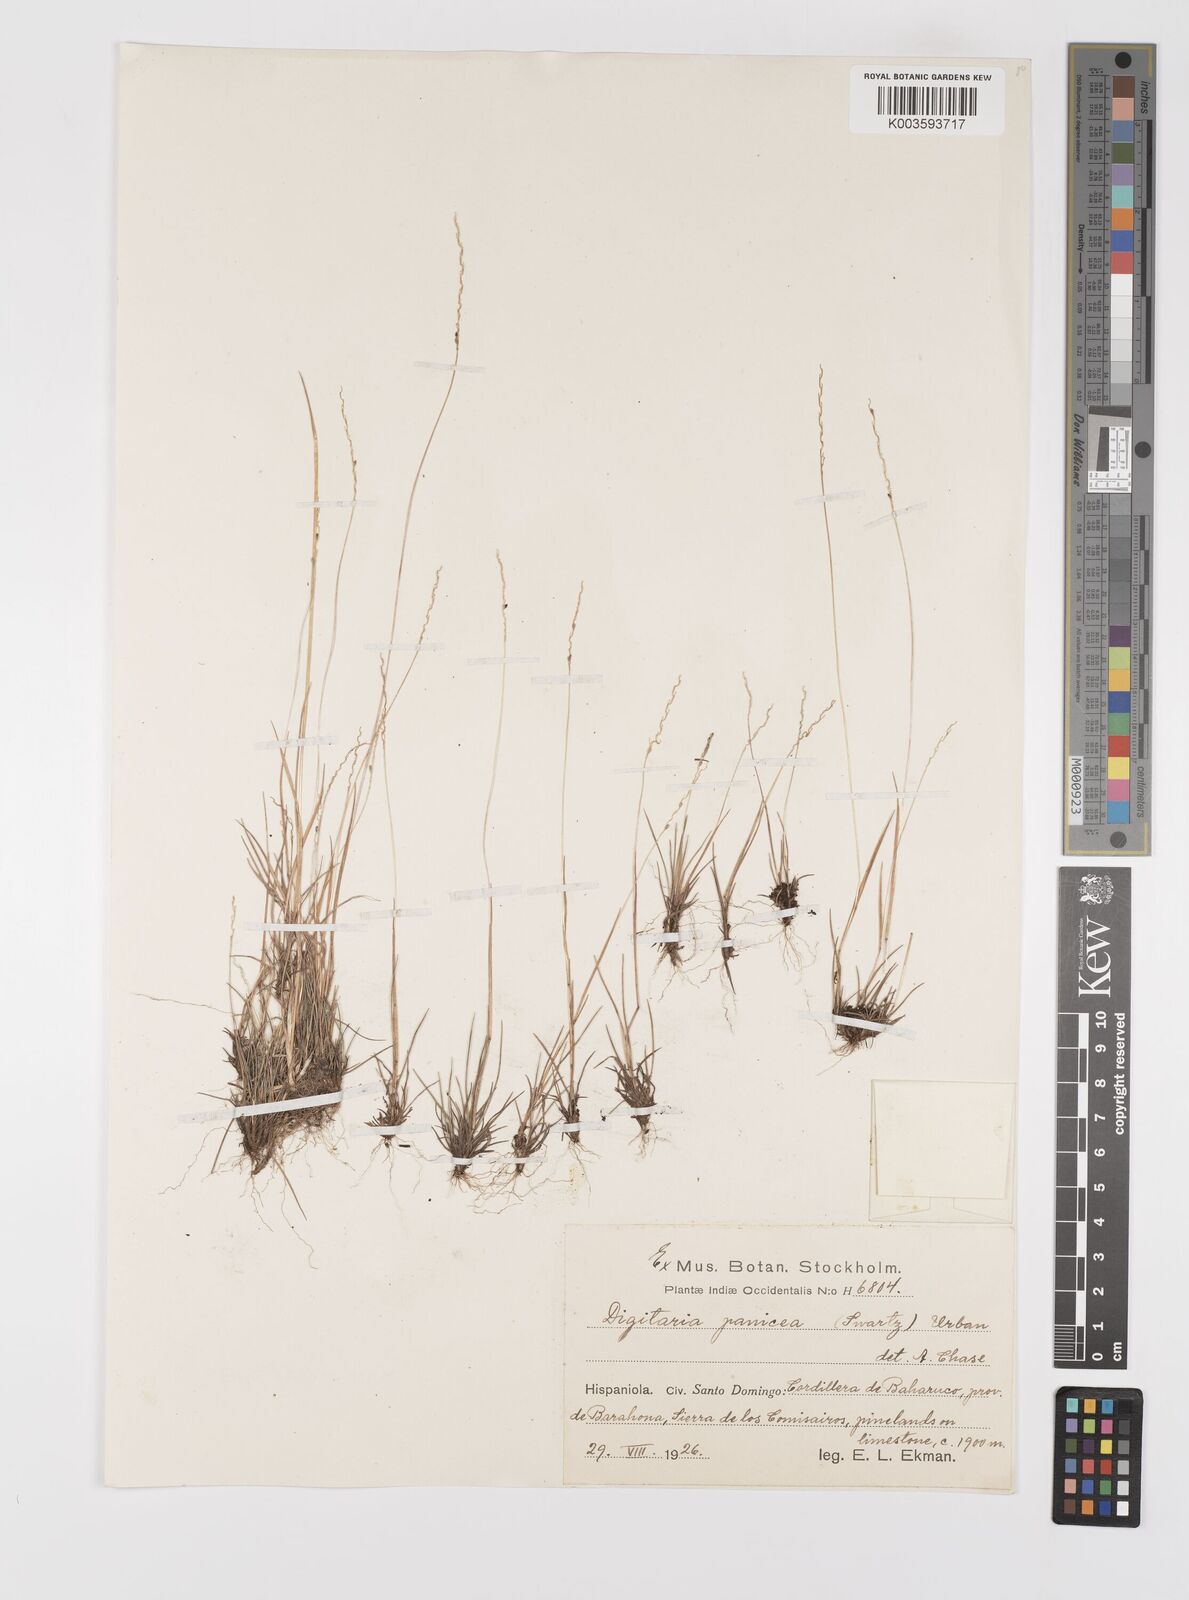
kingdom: Plantae
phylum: Tracheophyta
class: Liliopsida
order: Poales
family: Poaceae
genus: Digitaria
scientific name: Digitaria villosa
